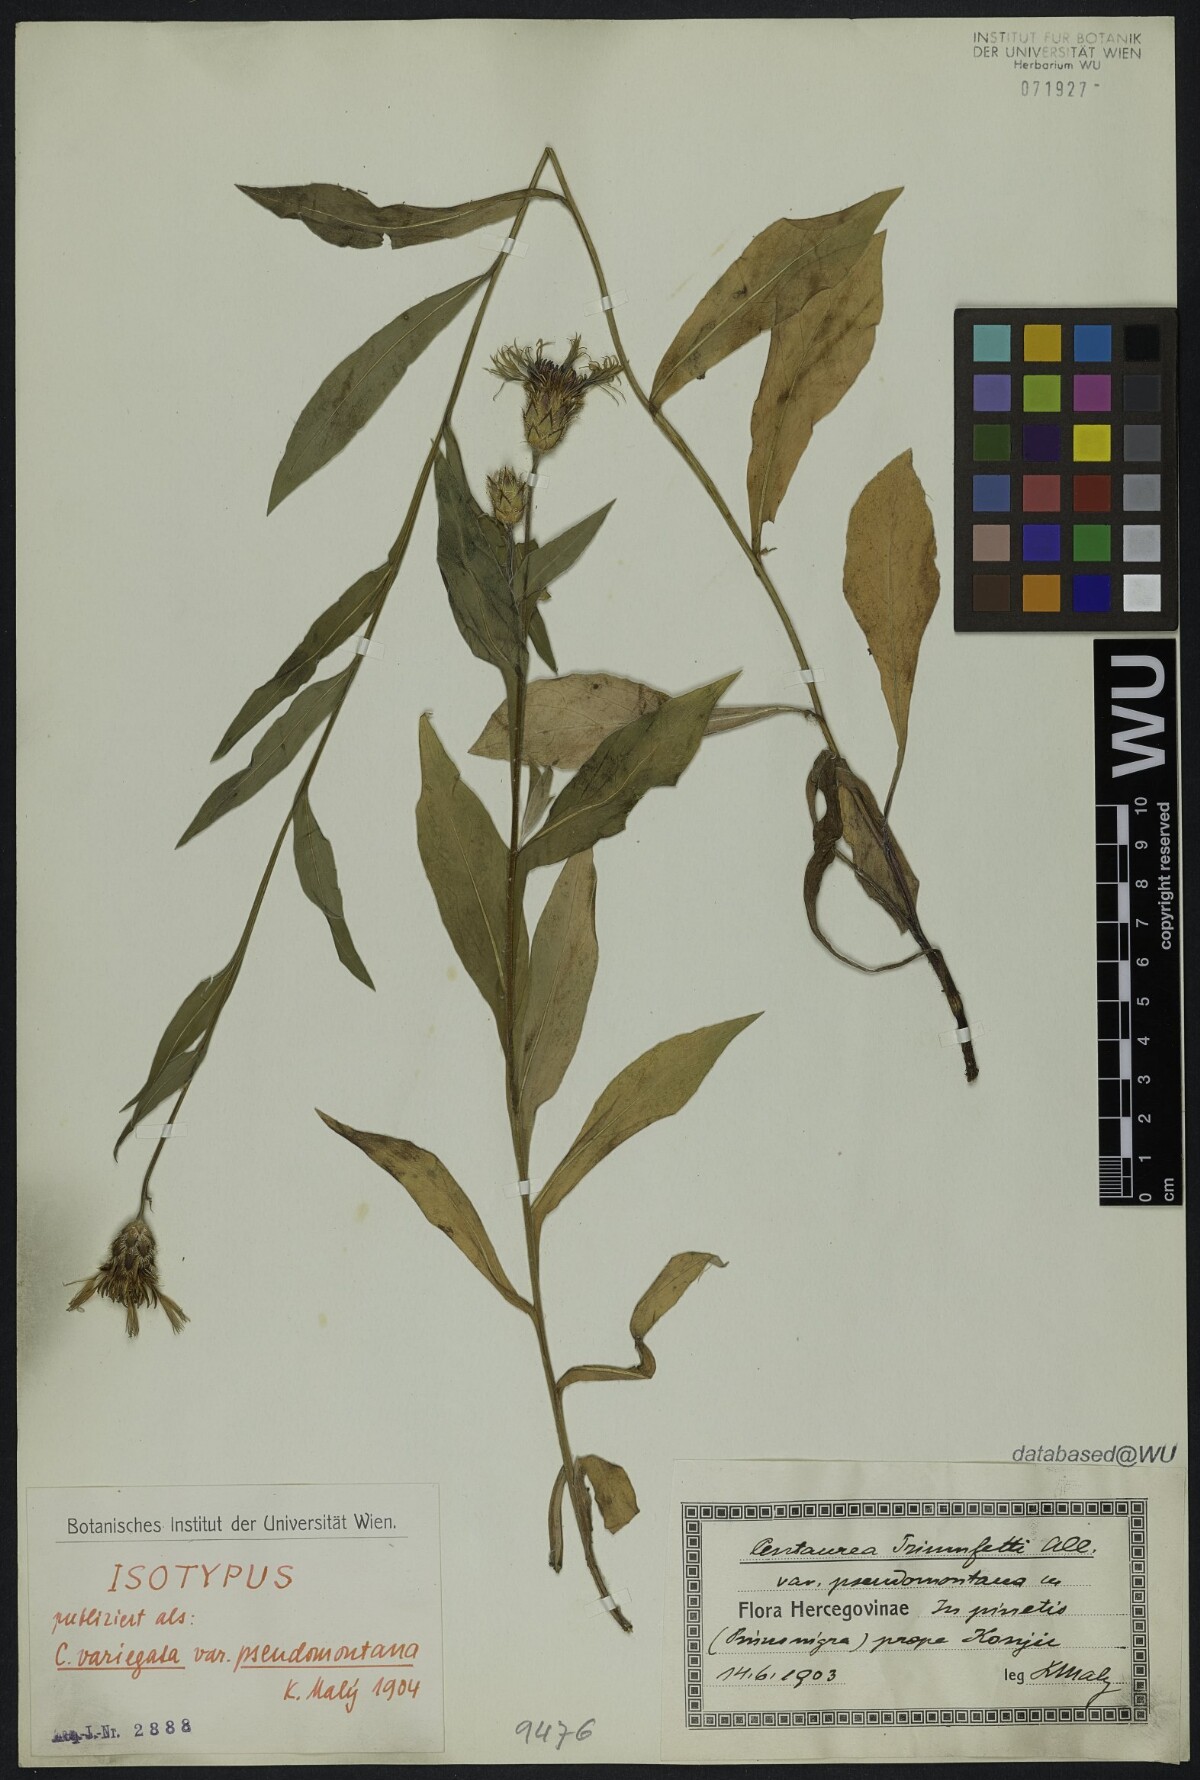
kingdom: Plantae
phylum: Tracheophyta
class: Magnoliopsida
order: Asterales
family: Asteraceae
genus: Centaurea
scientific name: Centaurea graminifolia
